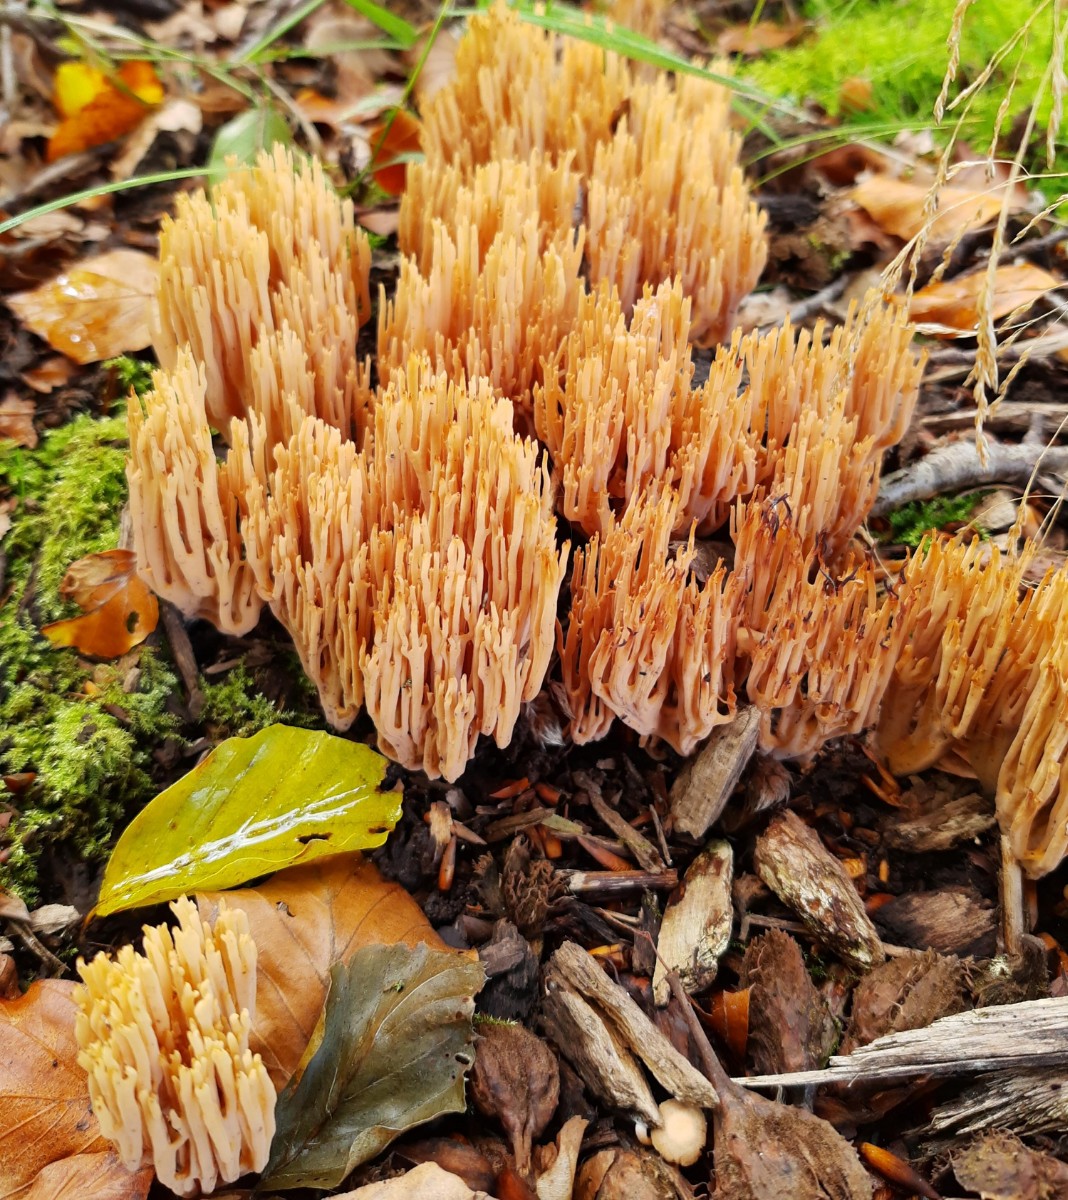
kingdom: Fungi
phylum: Basidiomycota
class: Agaricomycetes
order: Gomphales
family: Gomphaceae
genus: Ramaria
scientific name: Ramaria stricta
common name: rank koralsvamp
